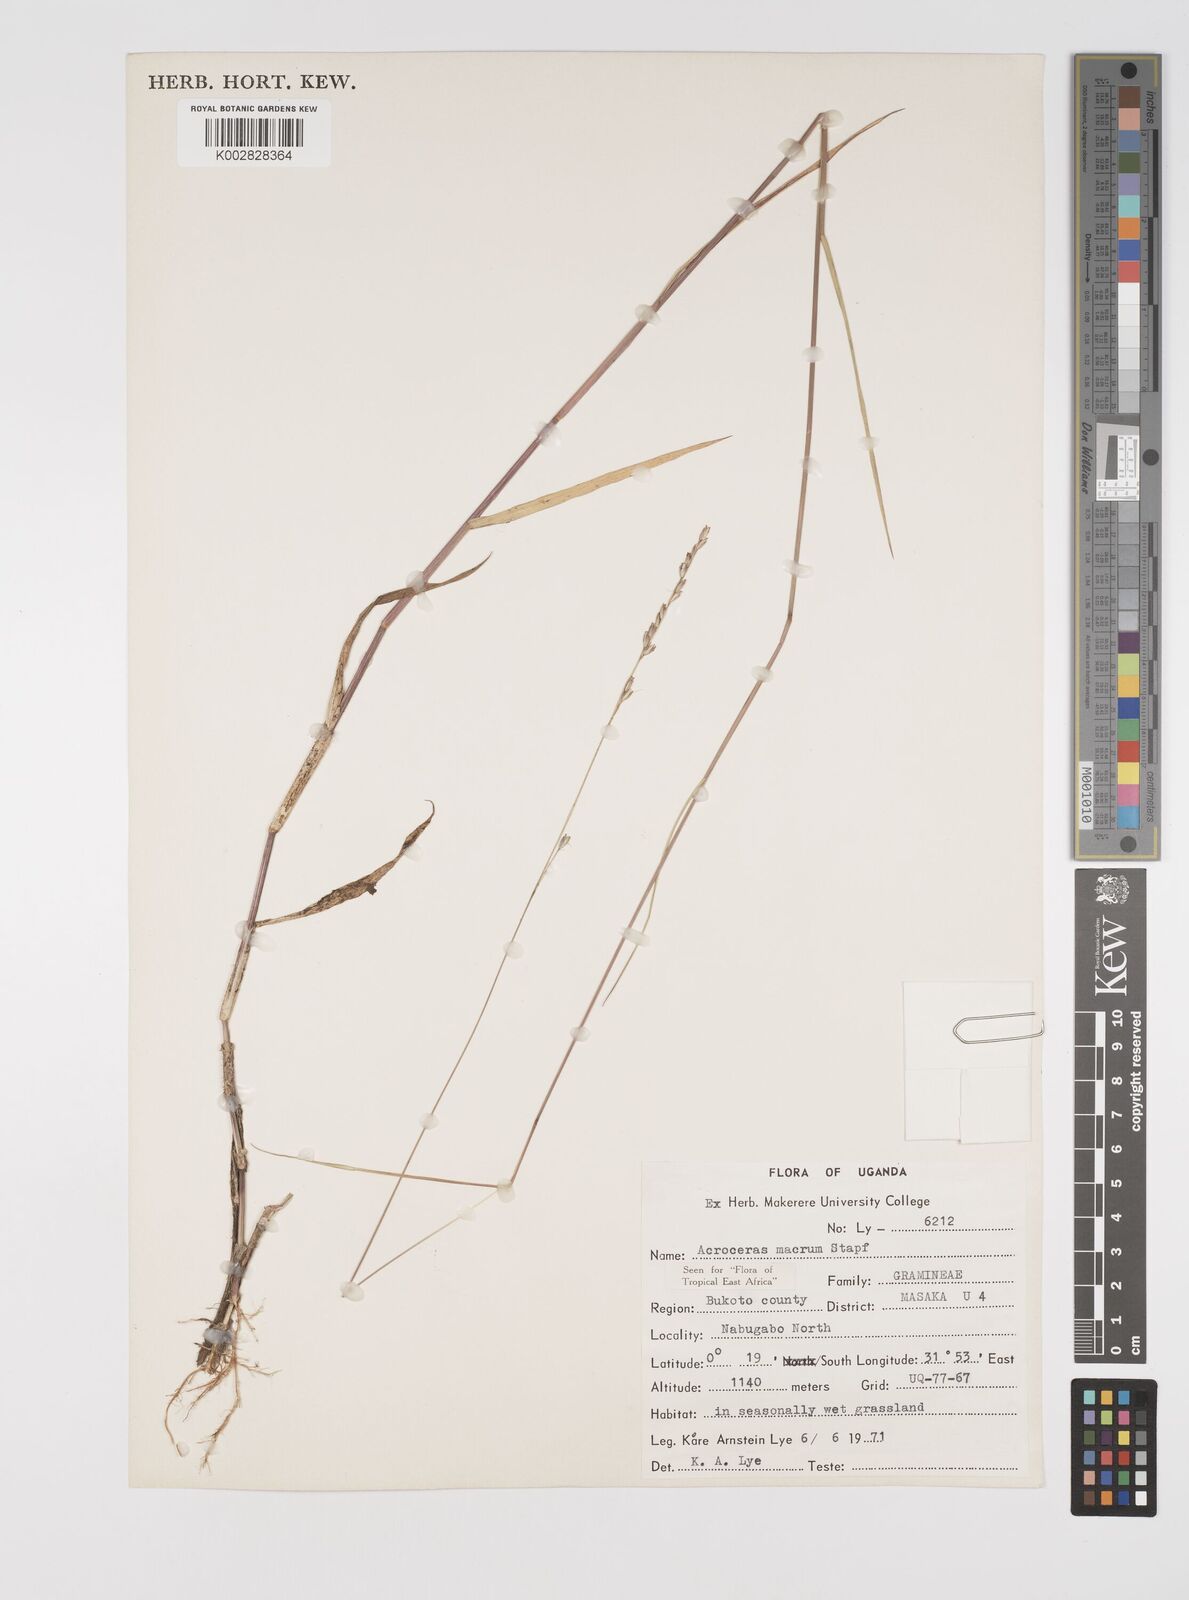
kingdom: Plantae
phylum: Tracheophyta
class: Liliopsida
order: Poales
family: Poaceae
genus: Acroceras
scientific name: Acroceras macrum
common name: Nyl grass
